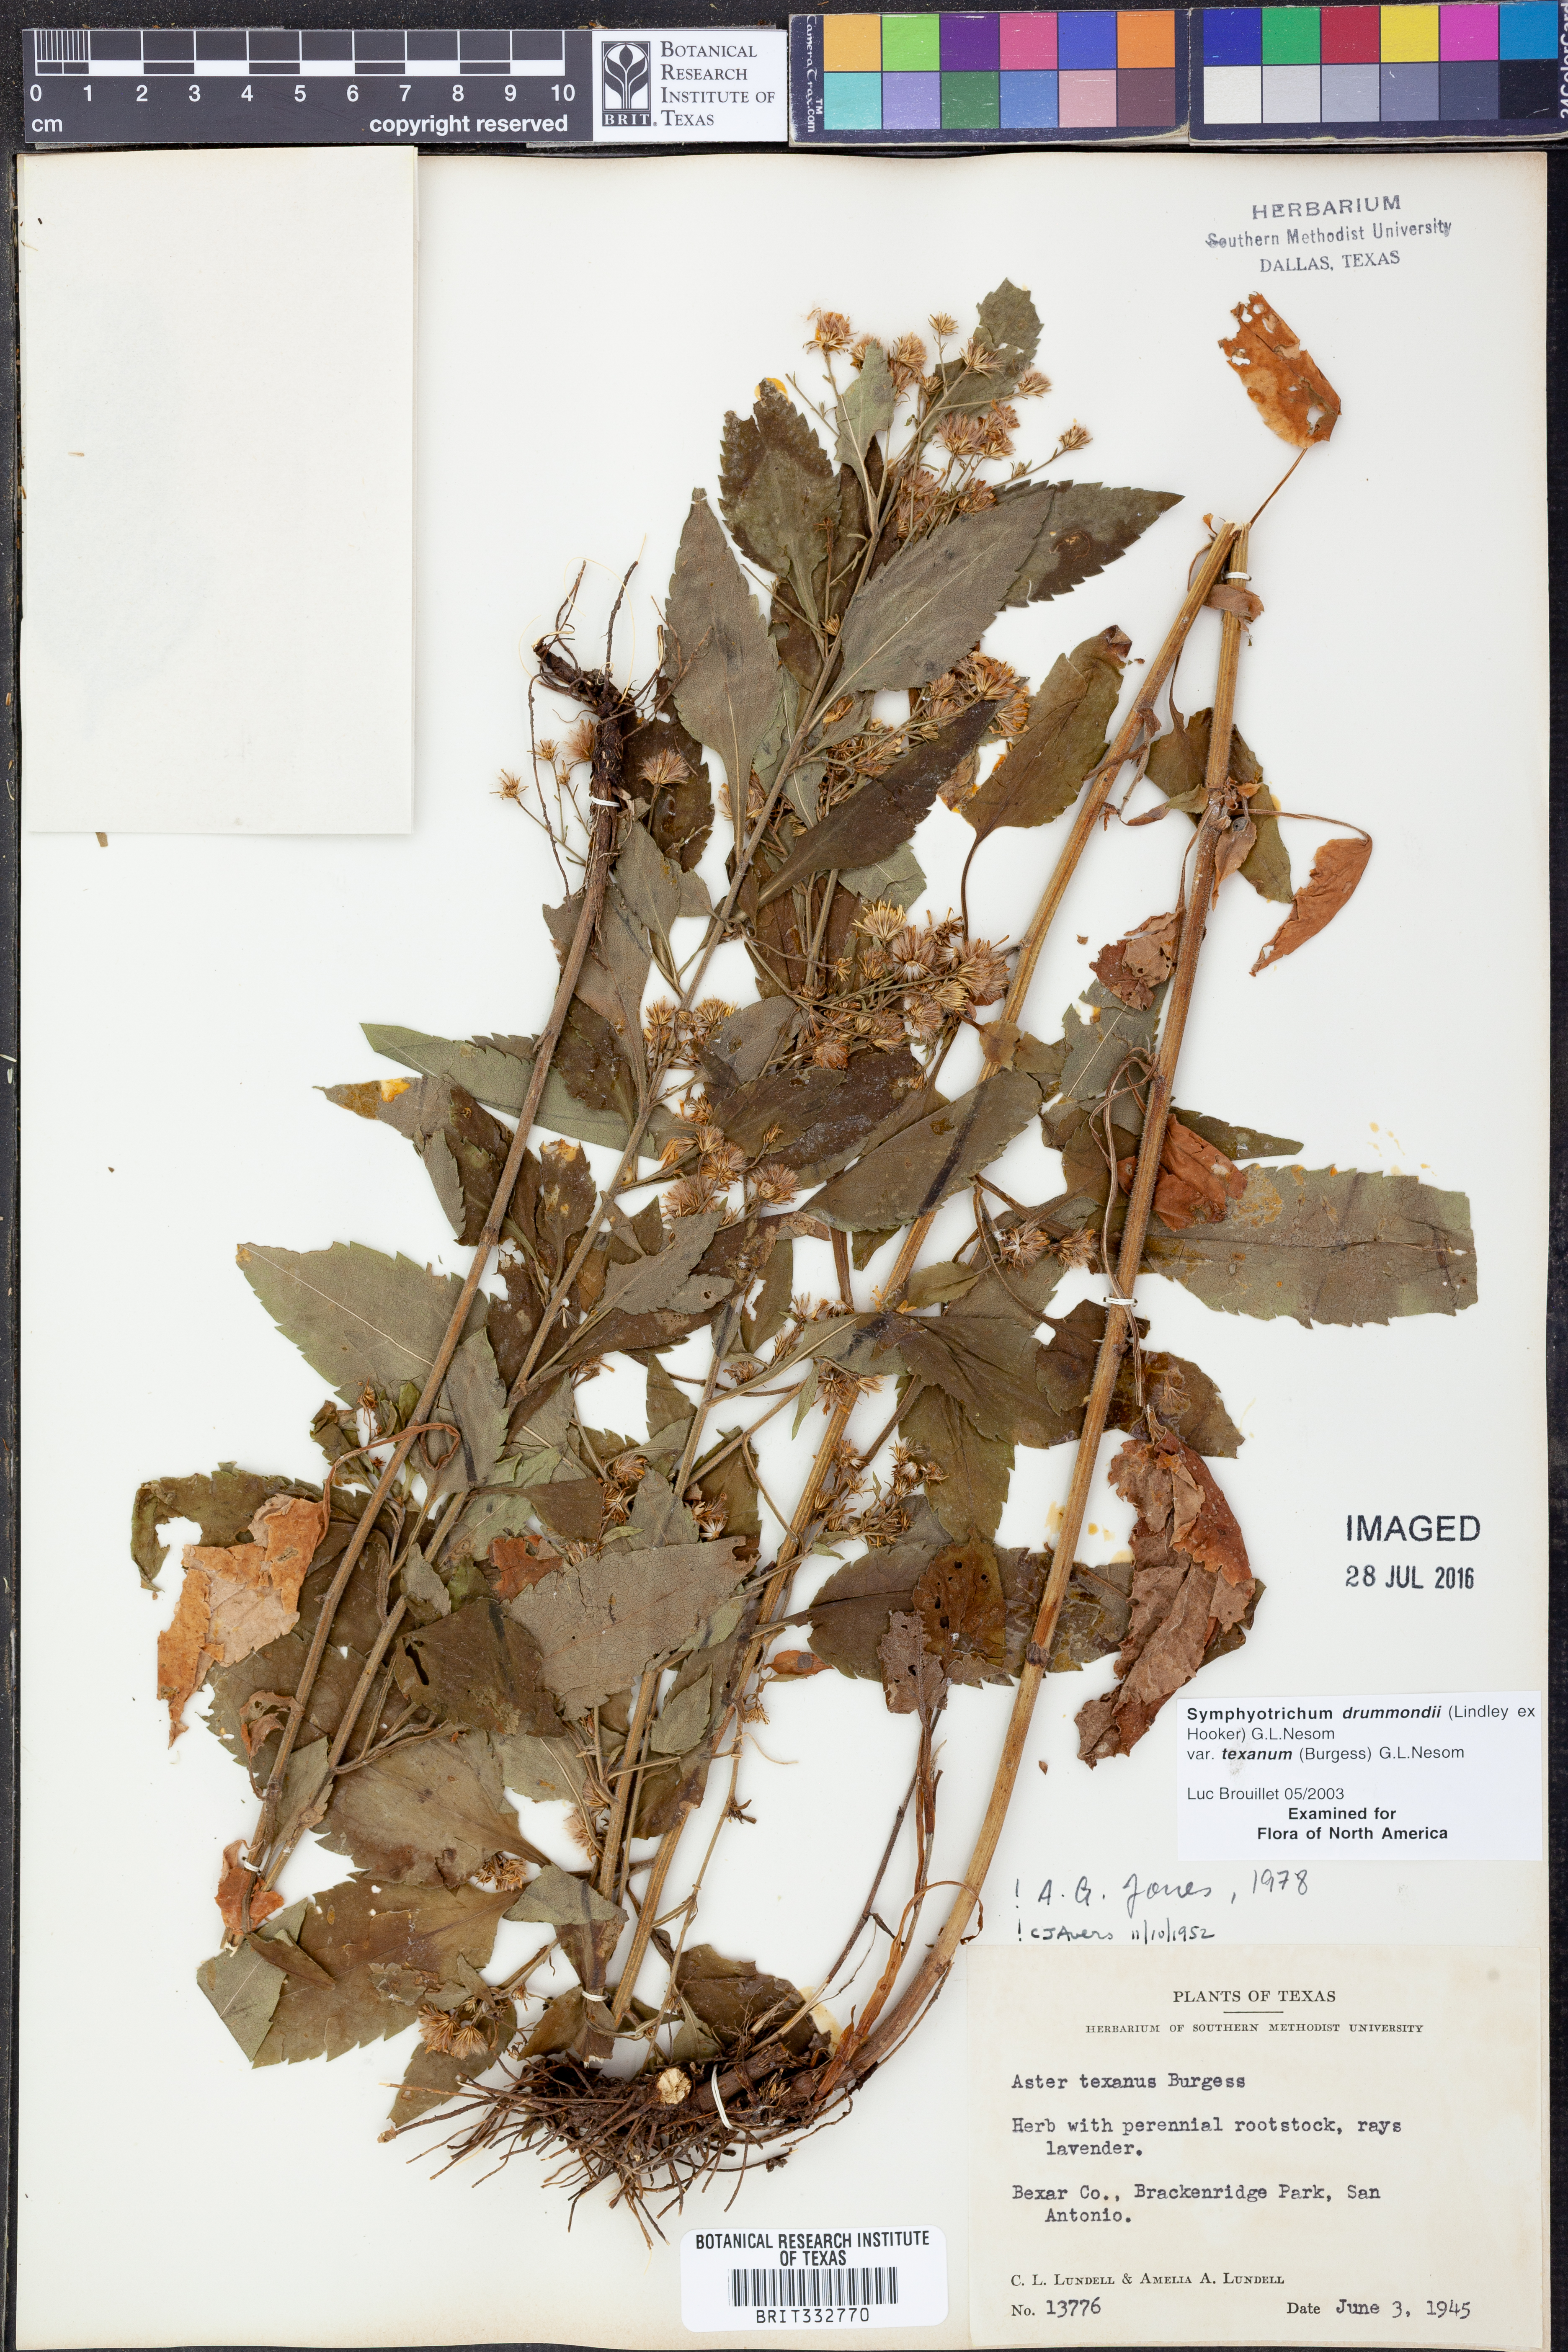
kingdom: Plantae
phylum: Tracheophyta
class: Magnoliopsida
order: Asterales
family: Asteraceae
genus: Symphyotrichum
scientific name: Symphyotrichum drummondii
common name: Drummond's aster
